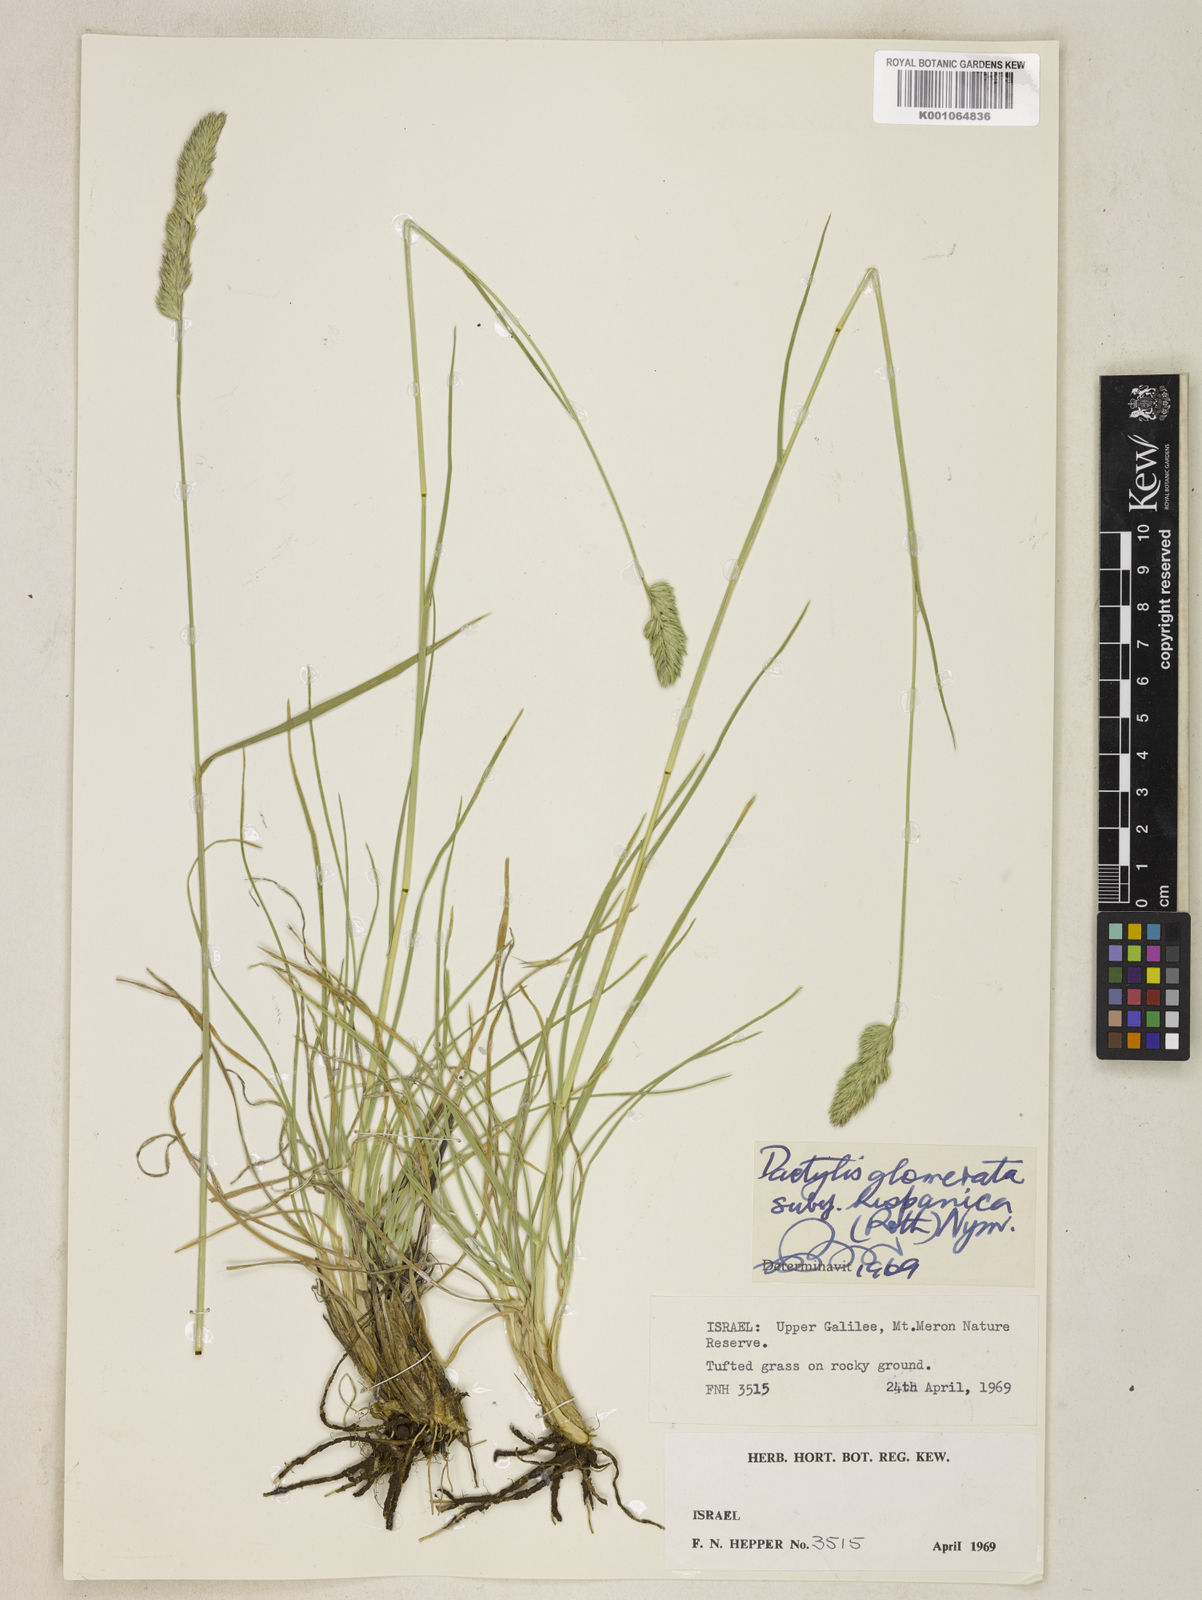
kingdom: Plantae
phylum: Tracheophyta
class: Liliopsida
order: Poales
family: Poaceae
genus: Dactylis
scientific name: Dactylis glomerata
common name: Orchardgrass
